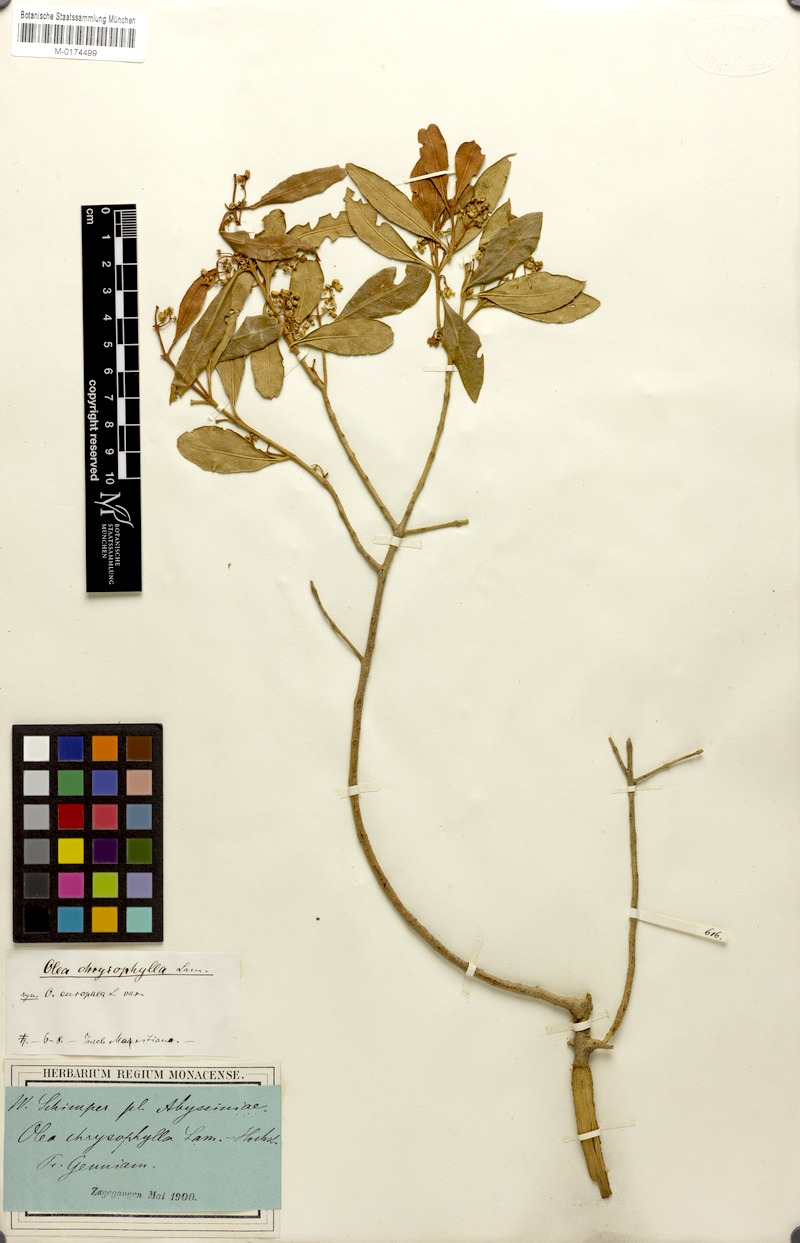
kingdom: Plantae
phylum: Tracheophyta
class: Magnoliopsida
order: Lamiales
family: Oleaceae
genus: Olea
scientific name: Olea europaea
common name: Olive
